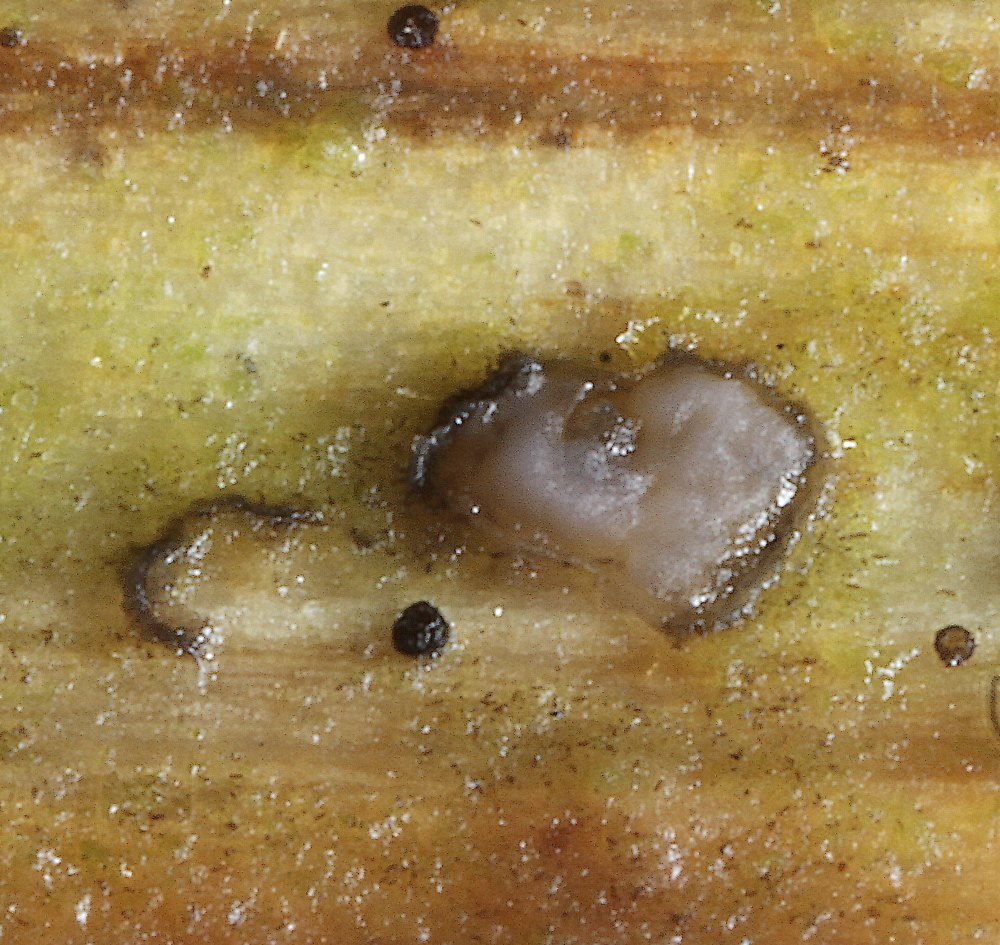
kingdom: Fungi
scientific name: Fungi
